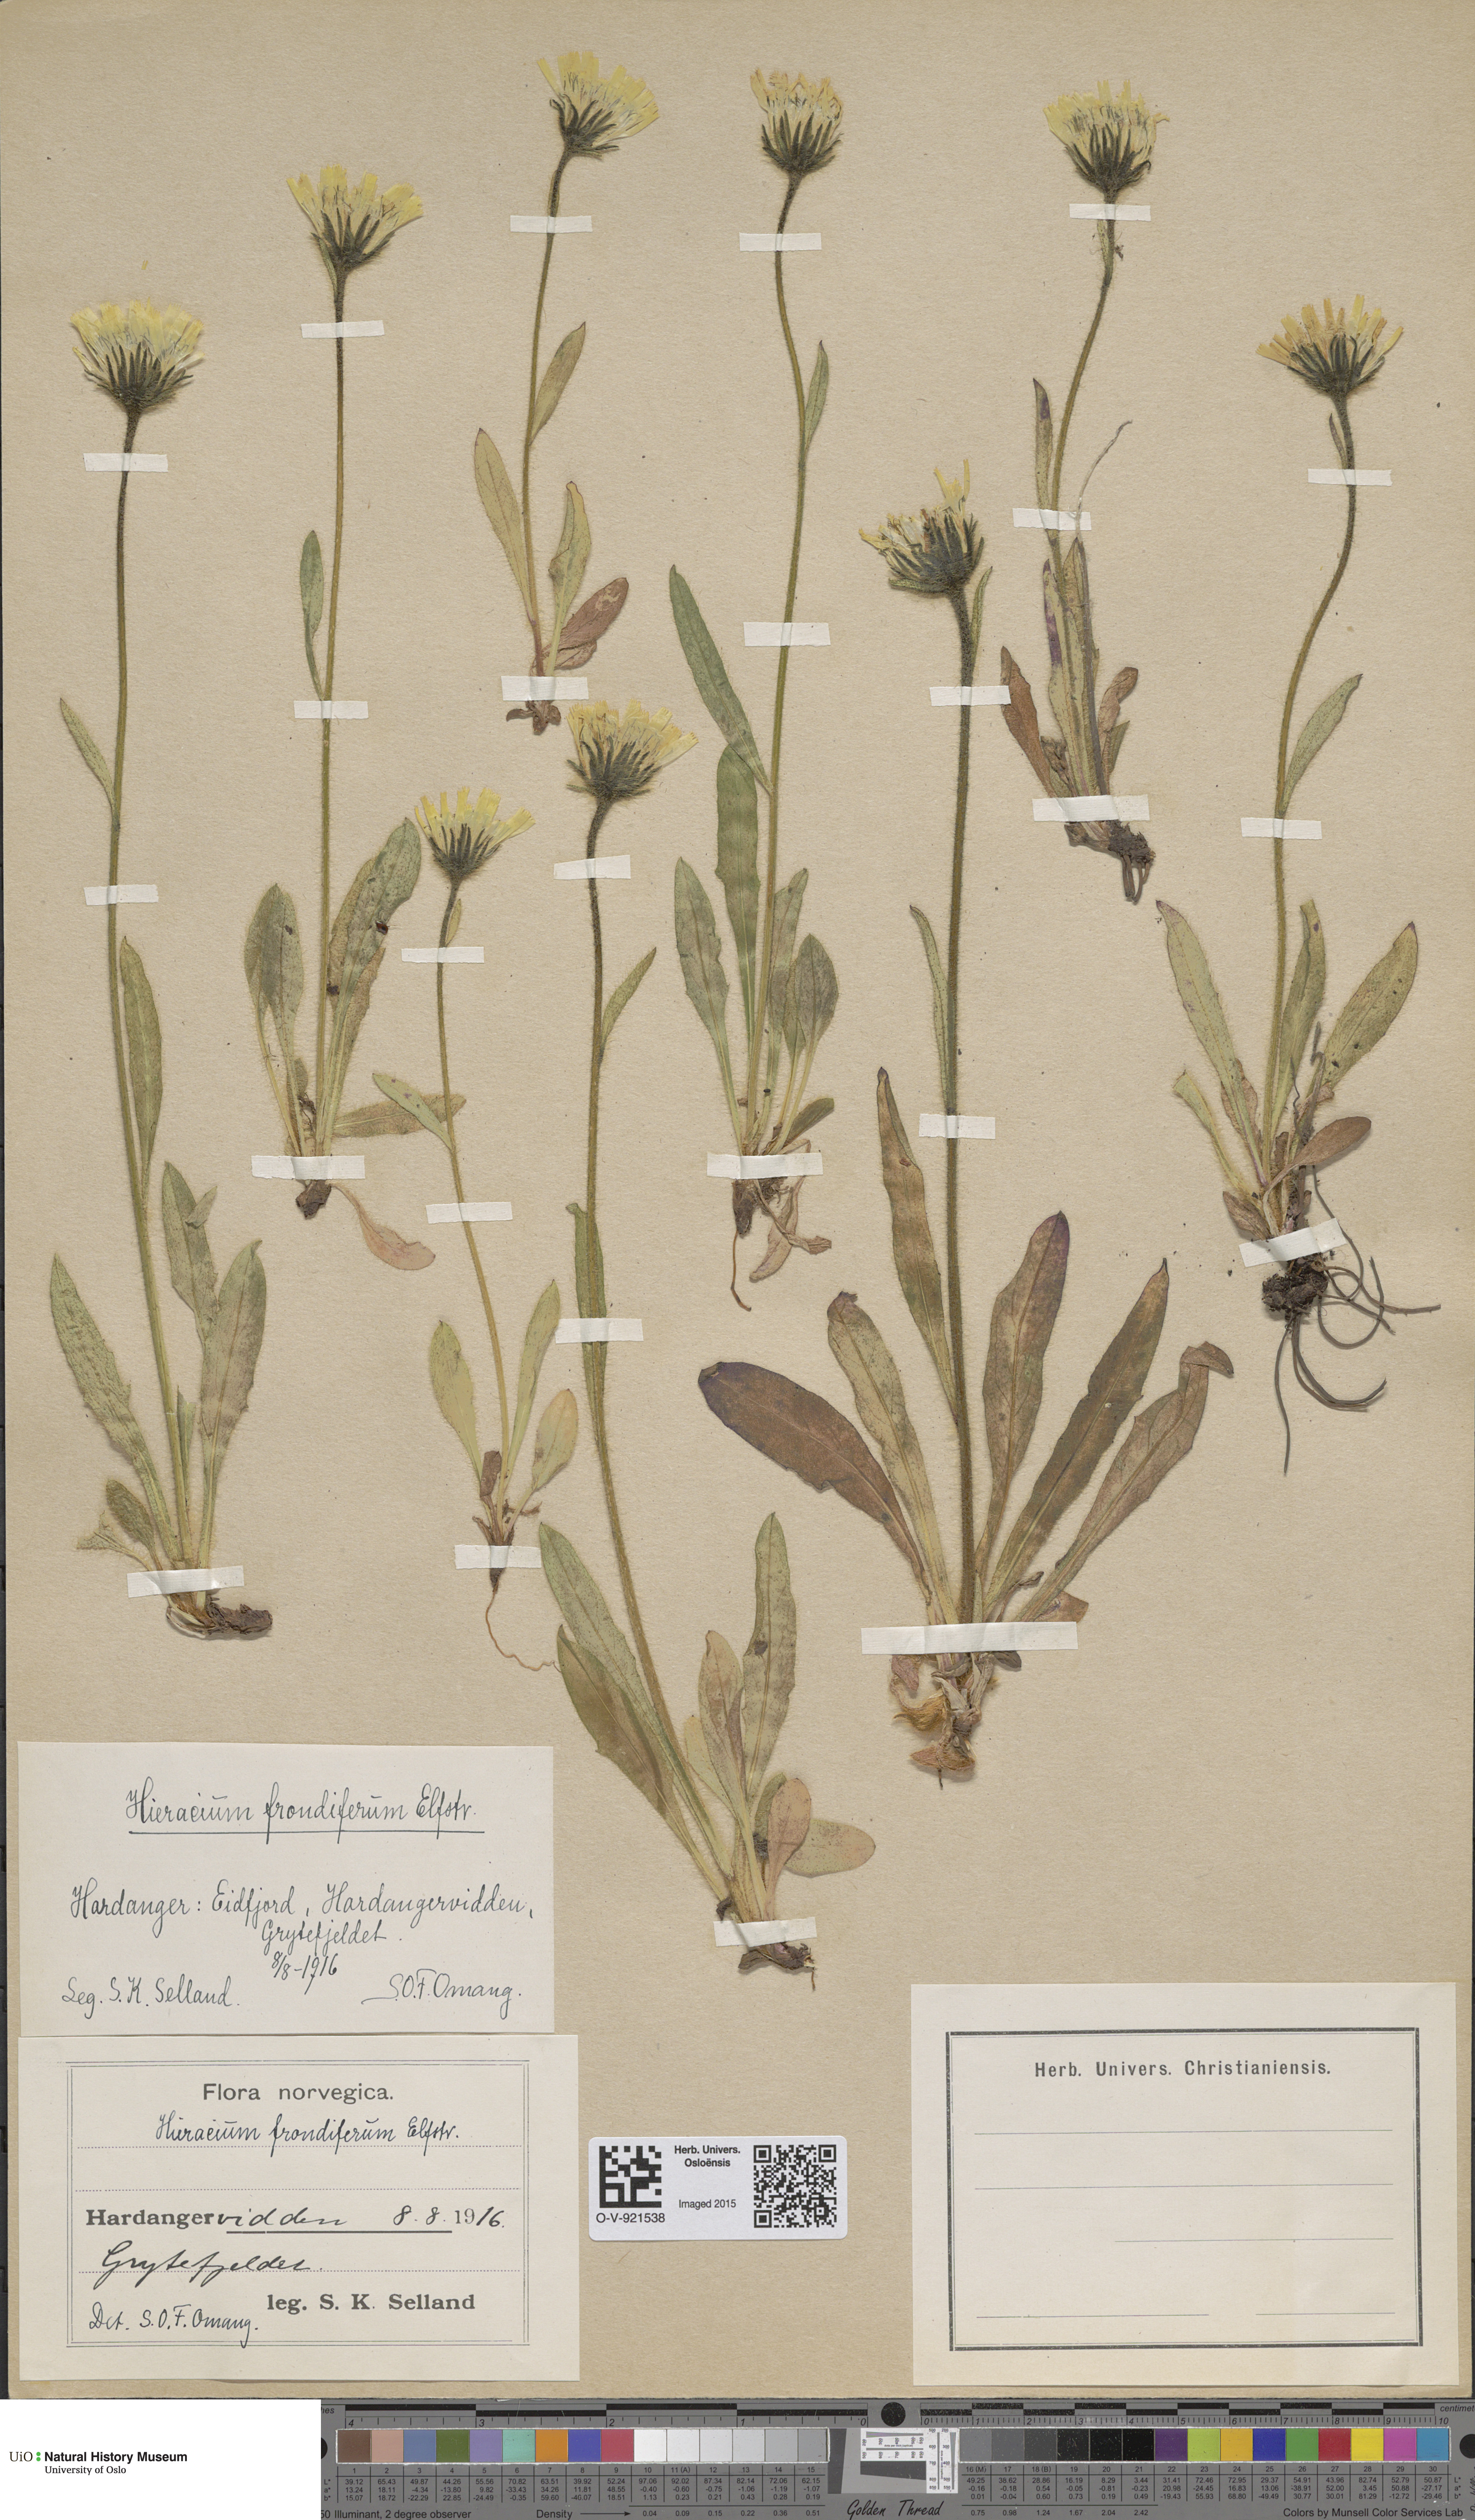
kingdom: Plantae
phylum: Tracheophyta
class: Magnoliopsida
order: Asterales
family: Asteraceae
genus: Hieracium
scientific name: Hieracium alpinum
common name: Alpine hawkweed
